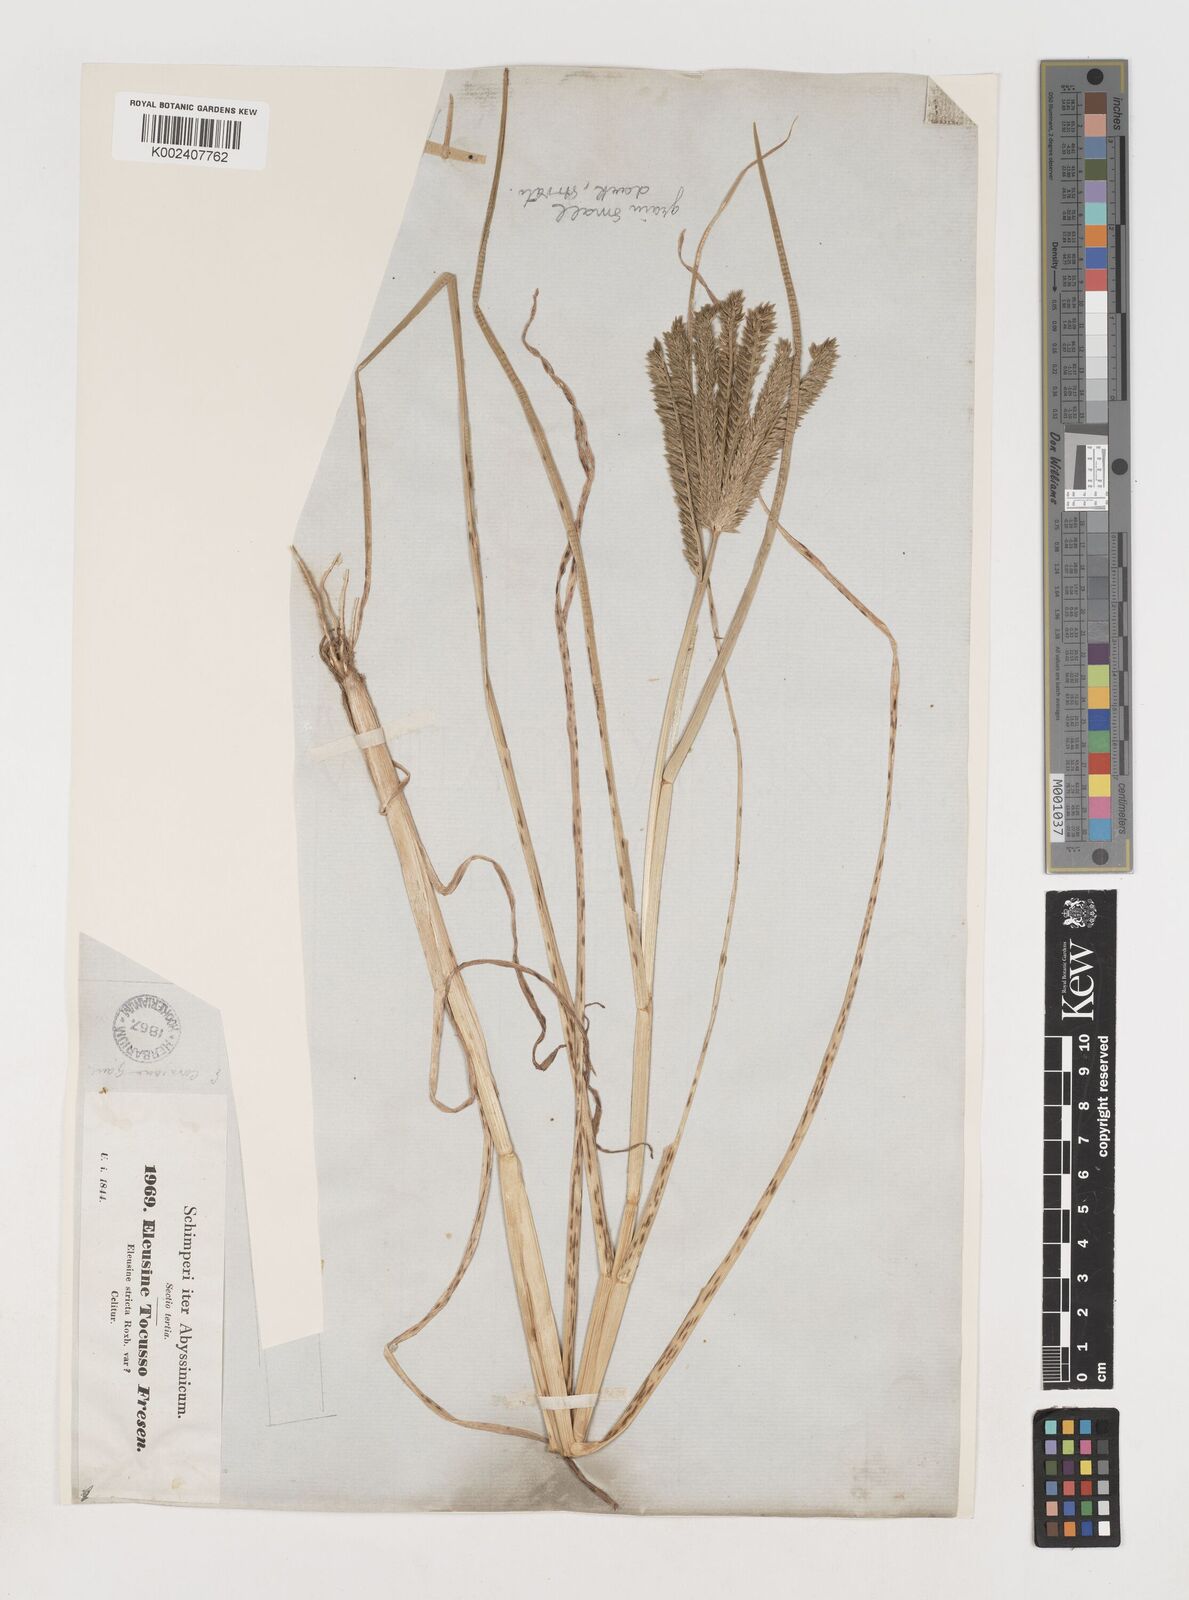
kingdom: Plantae
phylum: Tracheophyta
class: Liliopsida
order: Poales
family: Poaceae
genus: Eleusine
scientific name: Eleusine coracana
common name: Finger millet
